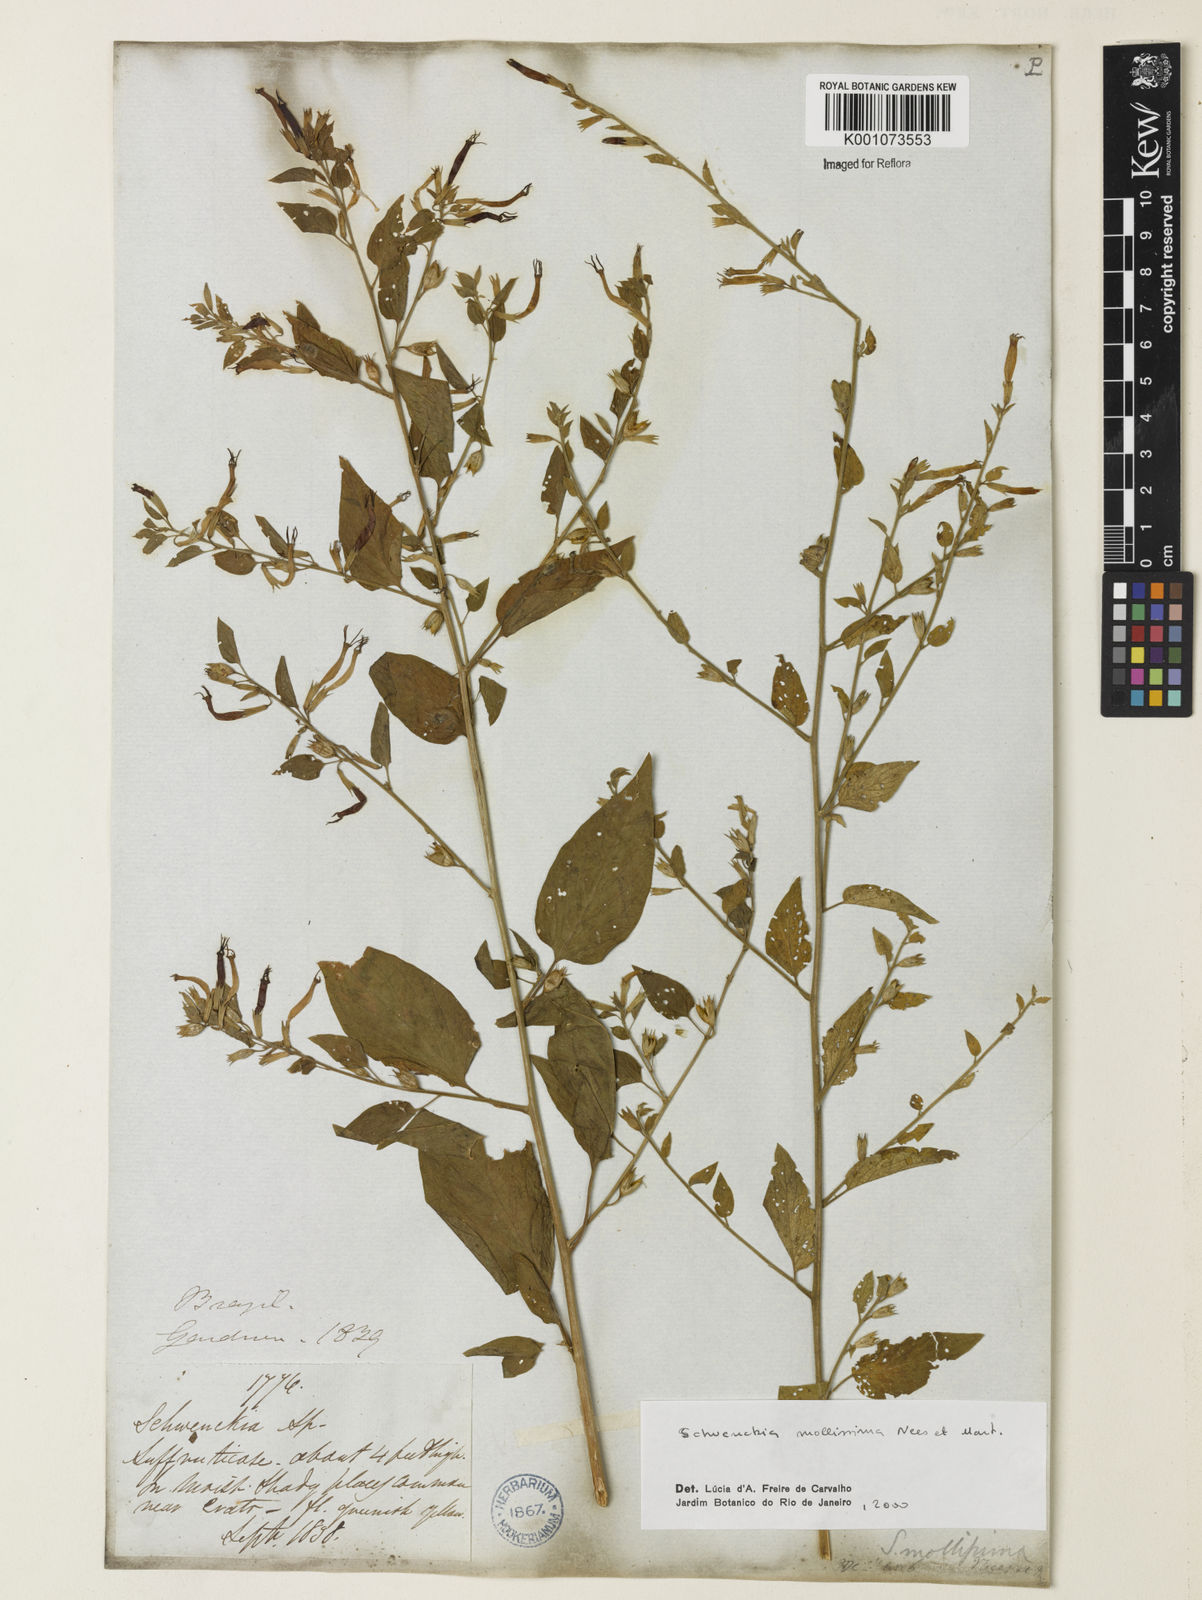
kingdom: Plantae
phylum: Tracheophyta
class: Magnoliopsida
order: Solanales
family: Solanaceae
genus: Schwenckia
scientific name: Schwenckia mollissima
